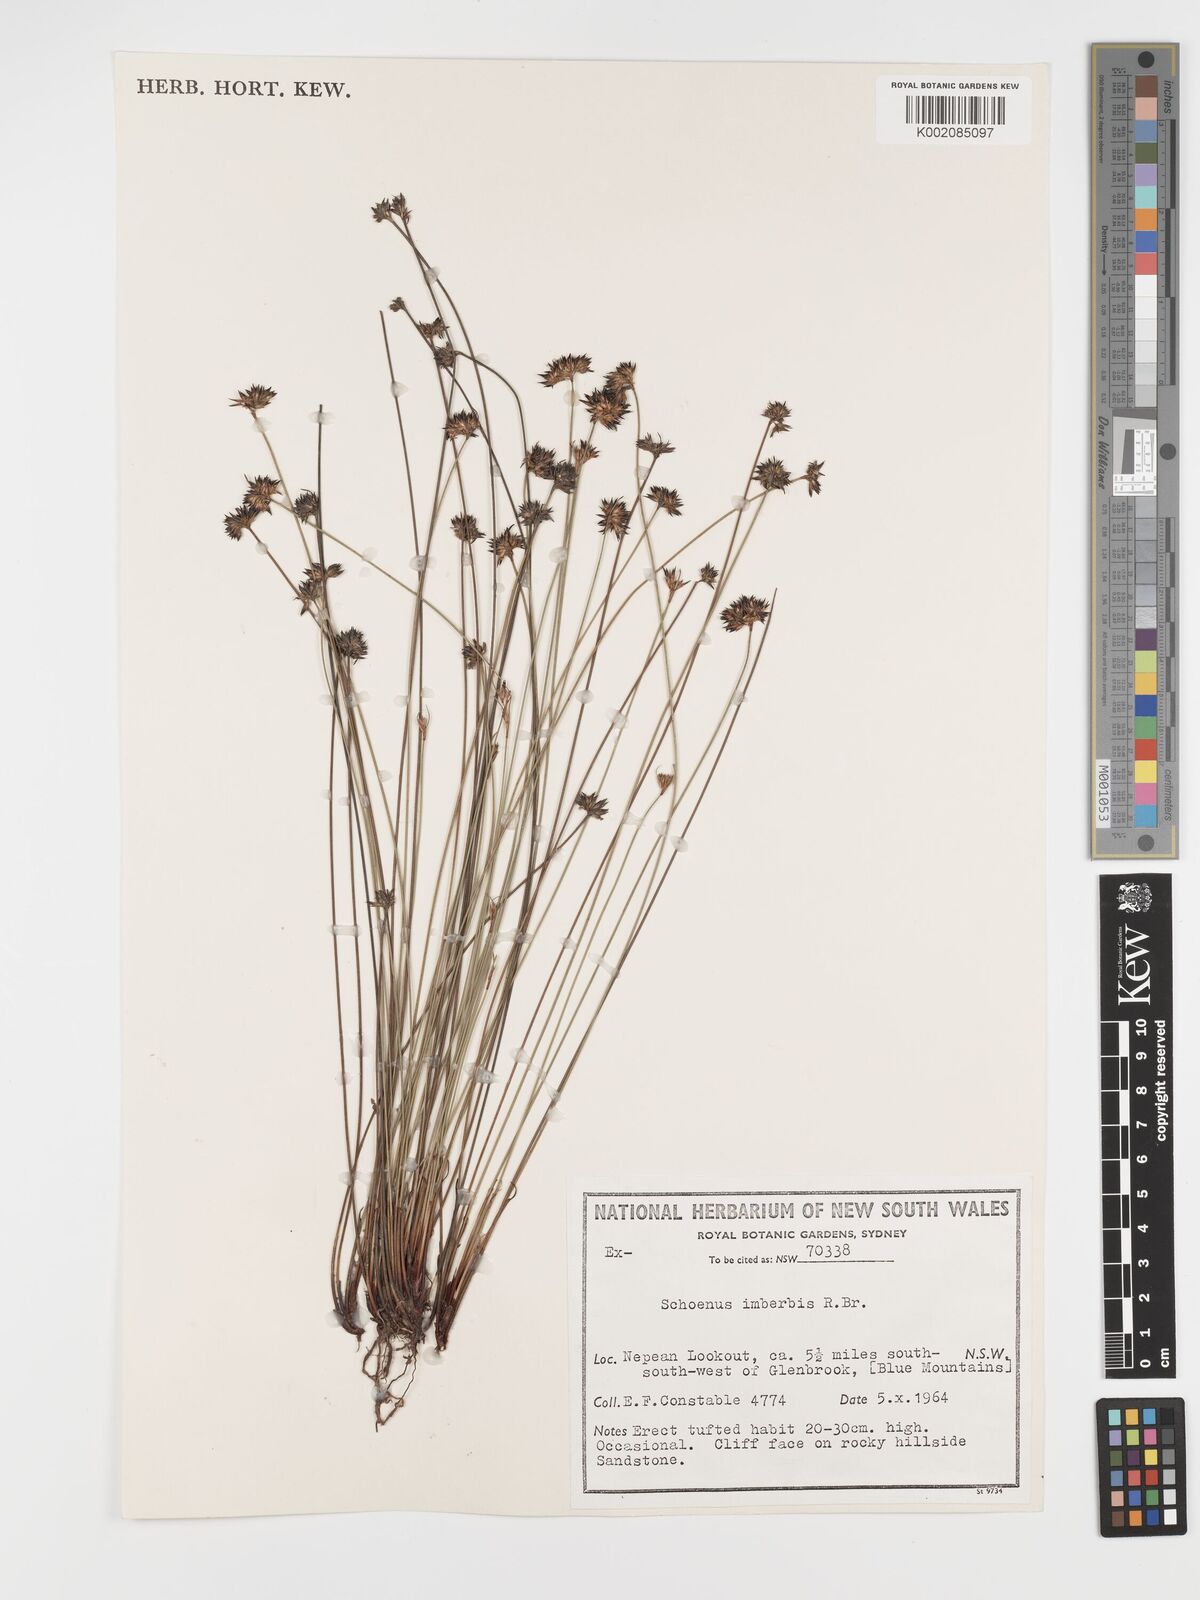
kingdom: Plantae
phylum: Tracheophyta
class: Liliopsida
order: Poales
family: Cyperaceae
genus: Schoenus
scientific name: Schoenus imberbis
